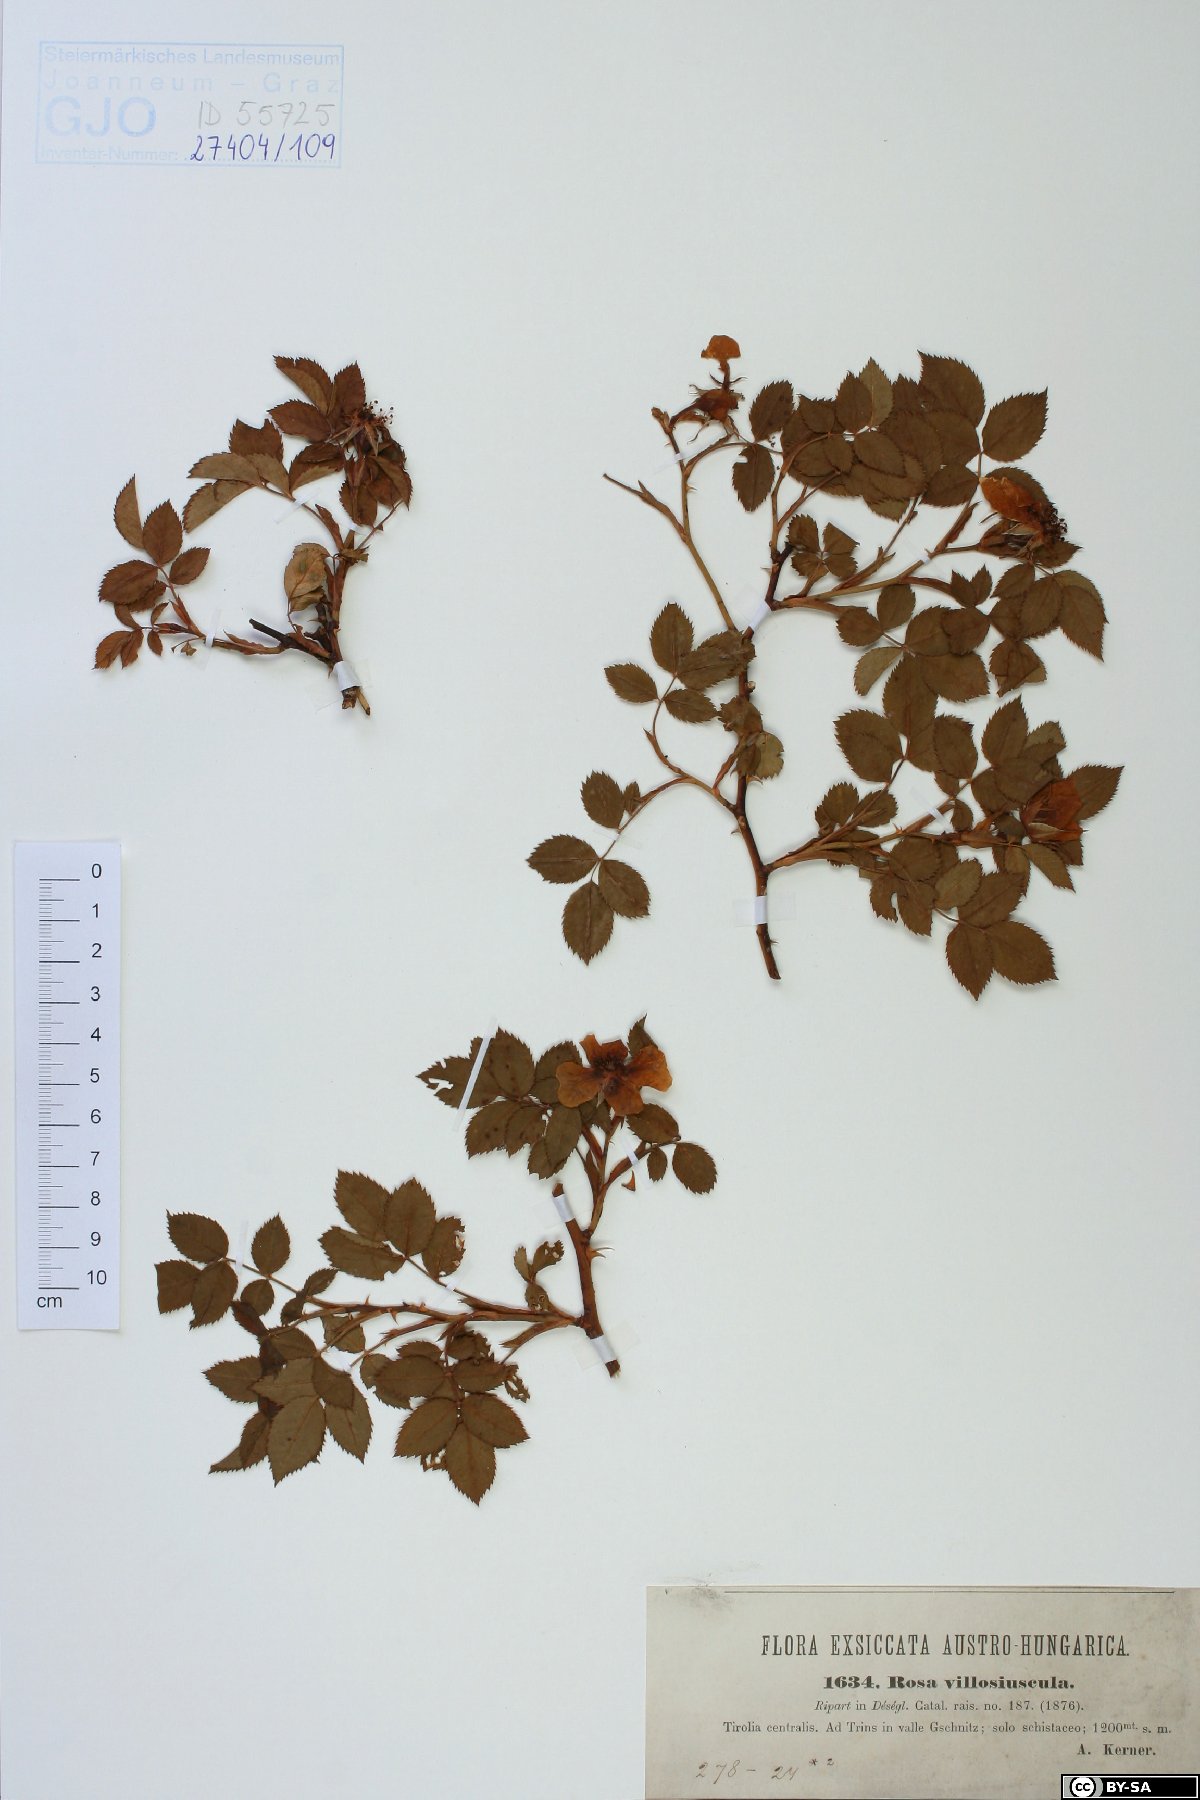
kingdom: Plantae
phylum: Tracheophyta
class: Magnoliopsida
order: Rosales
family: Rosaceae
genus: Rosa
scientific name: Rosa canina
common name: Dog rose
